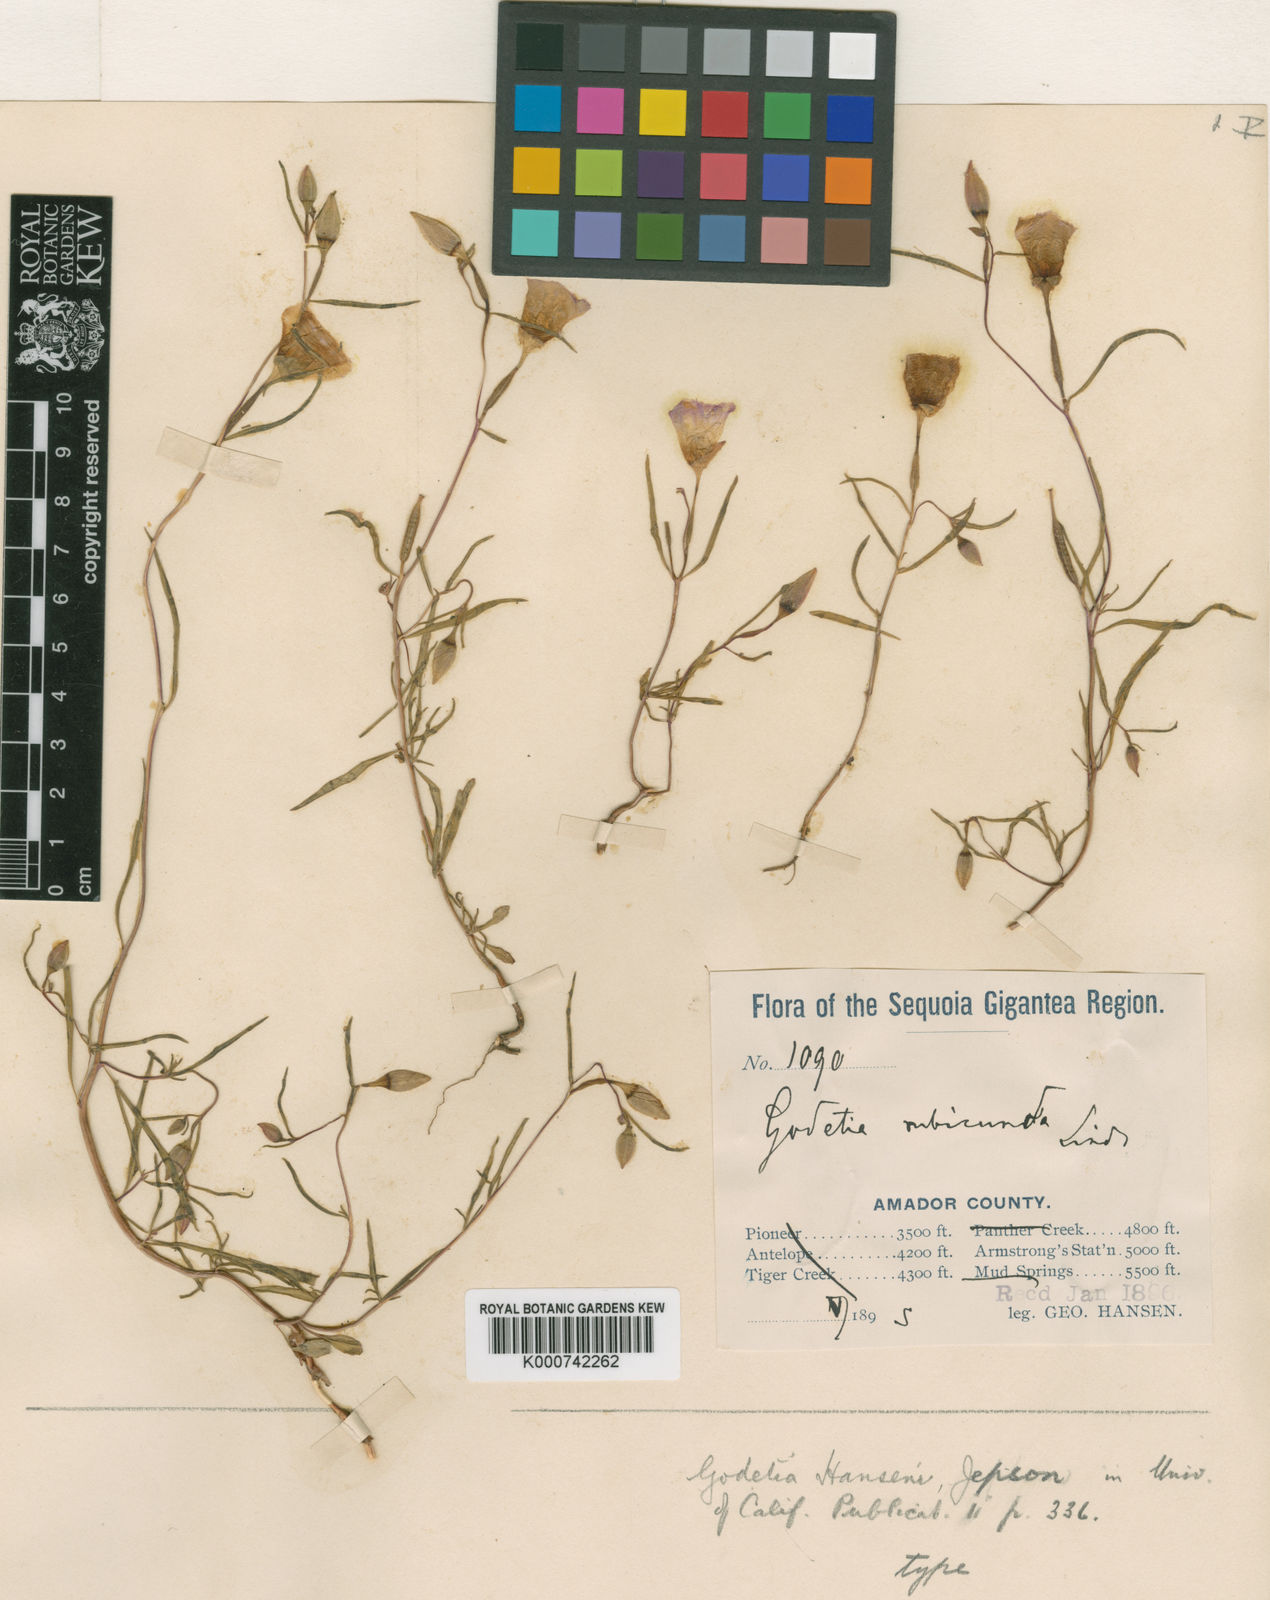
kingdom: Plantae
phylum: Tracheophyta
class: Magnoliopsida
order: Myrtales
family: Onagraceae
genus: Clarkia
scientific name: Clarkia arcuata
